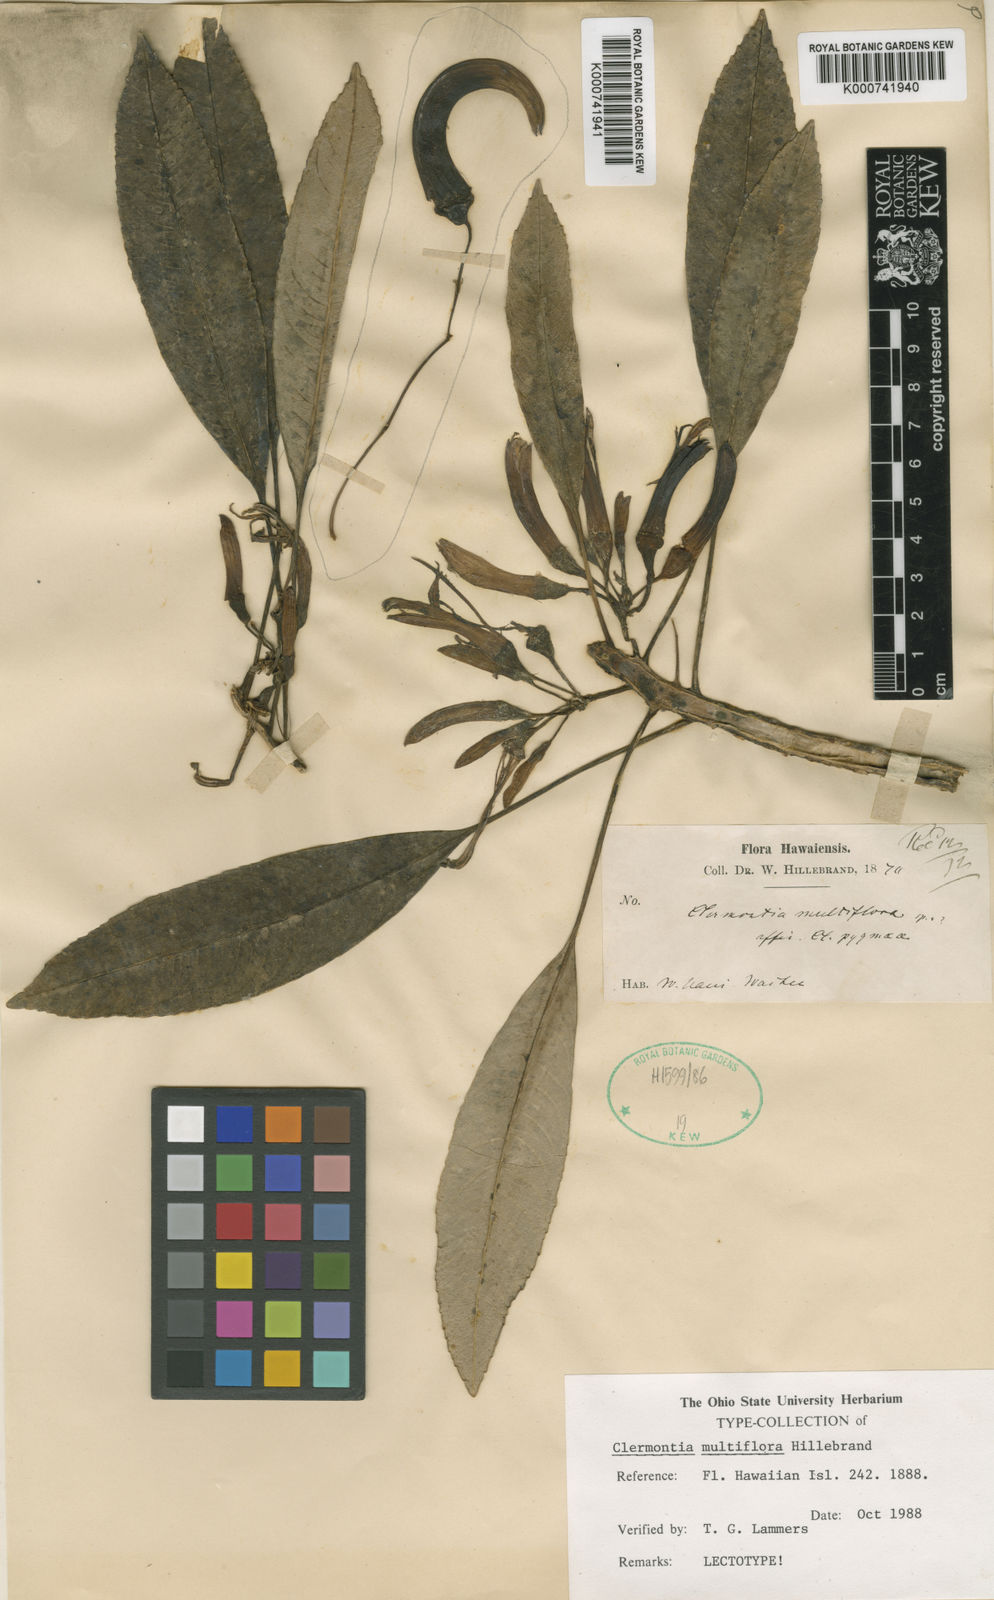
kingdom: Plantae
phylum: Tracheophyta
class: Magnoliopsida
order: Asterales
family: Campanulaceae
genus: Clermontia
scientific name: Clermontia multiflora
